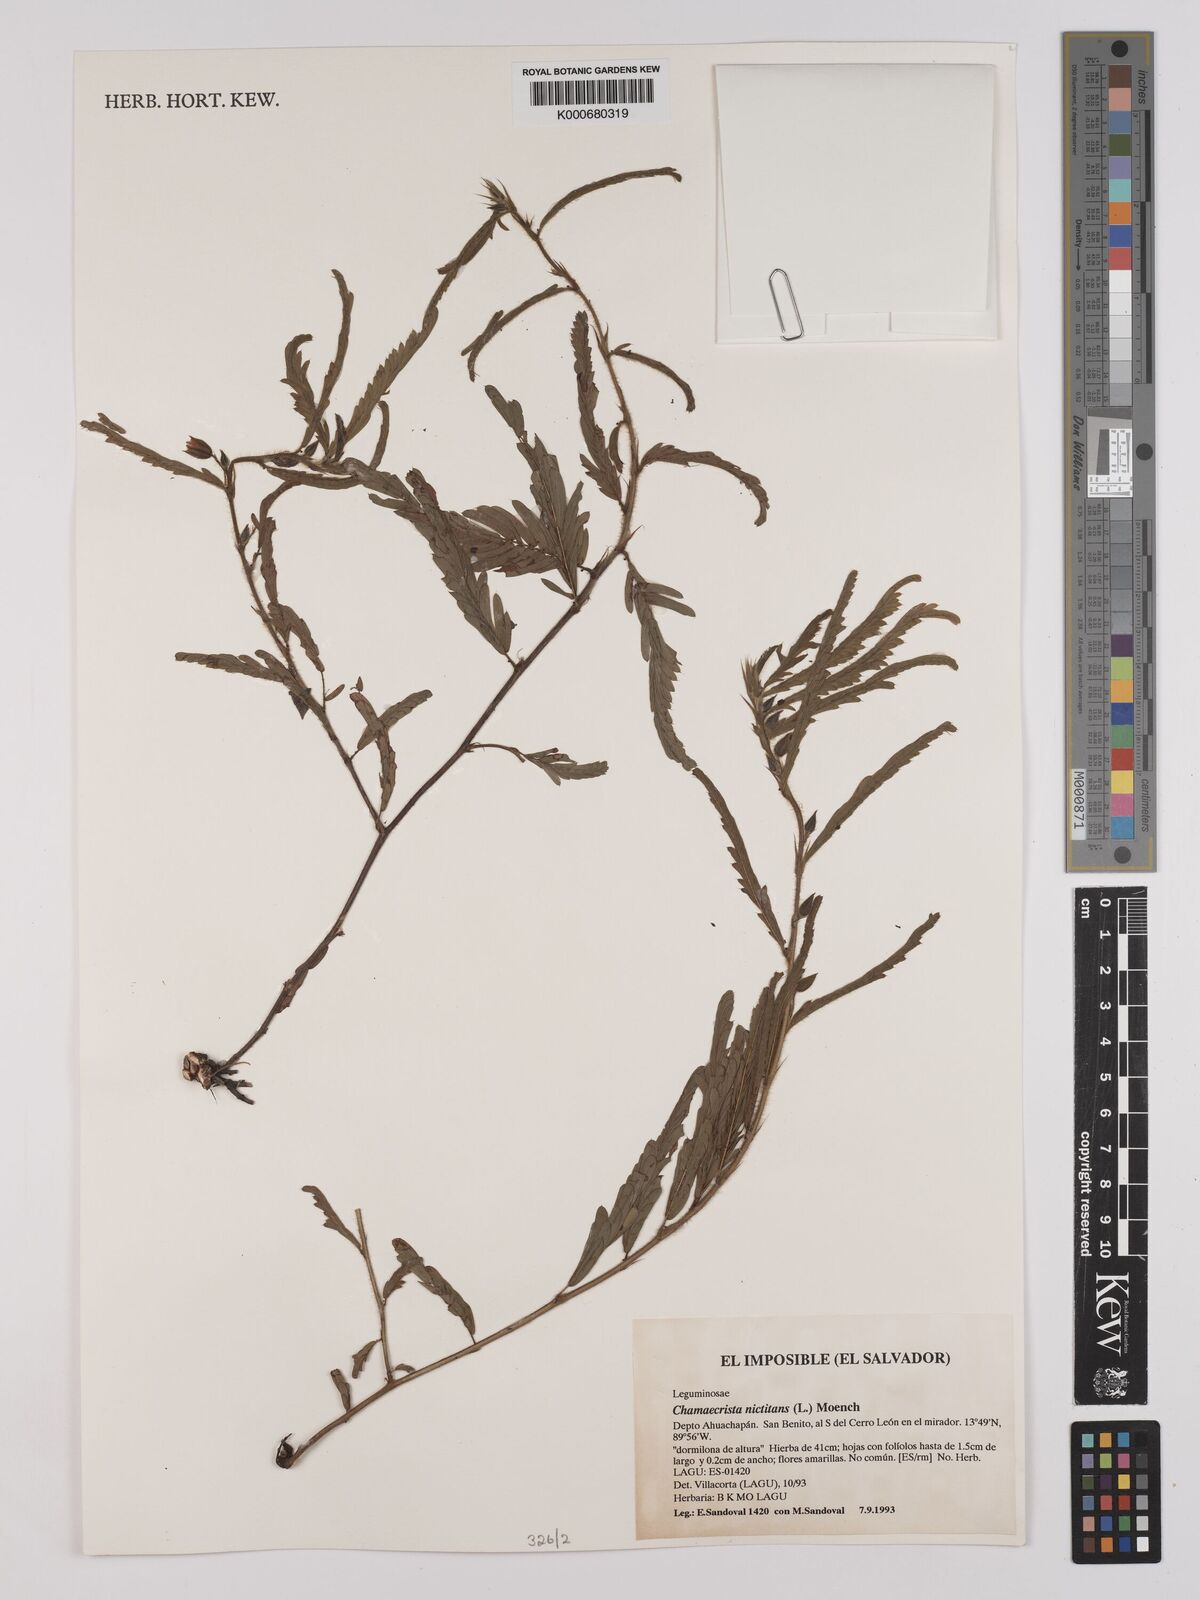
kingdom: Plantae
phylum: Tracheophyta
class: Magnoliopsida
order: Fabales
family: Fabaceae
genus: Chamaecrista
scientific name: Chamaecrista nictitans
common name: Sensitive cassia
